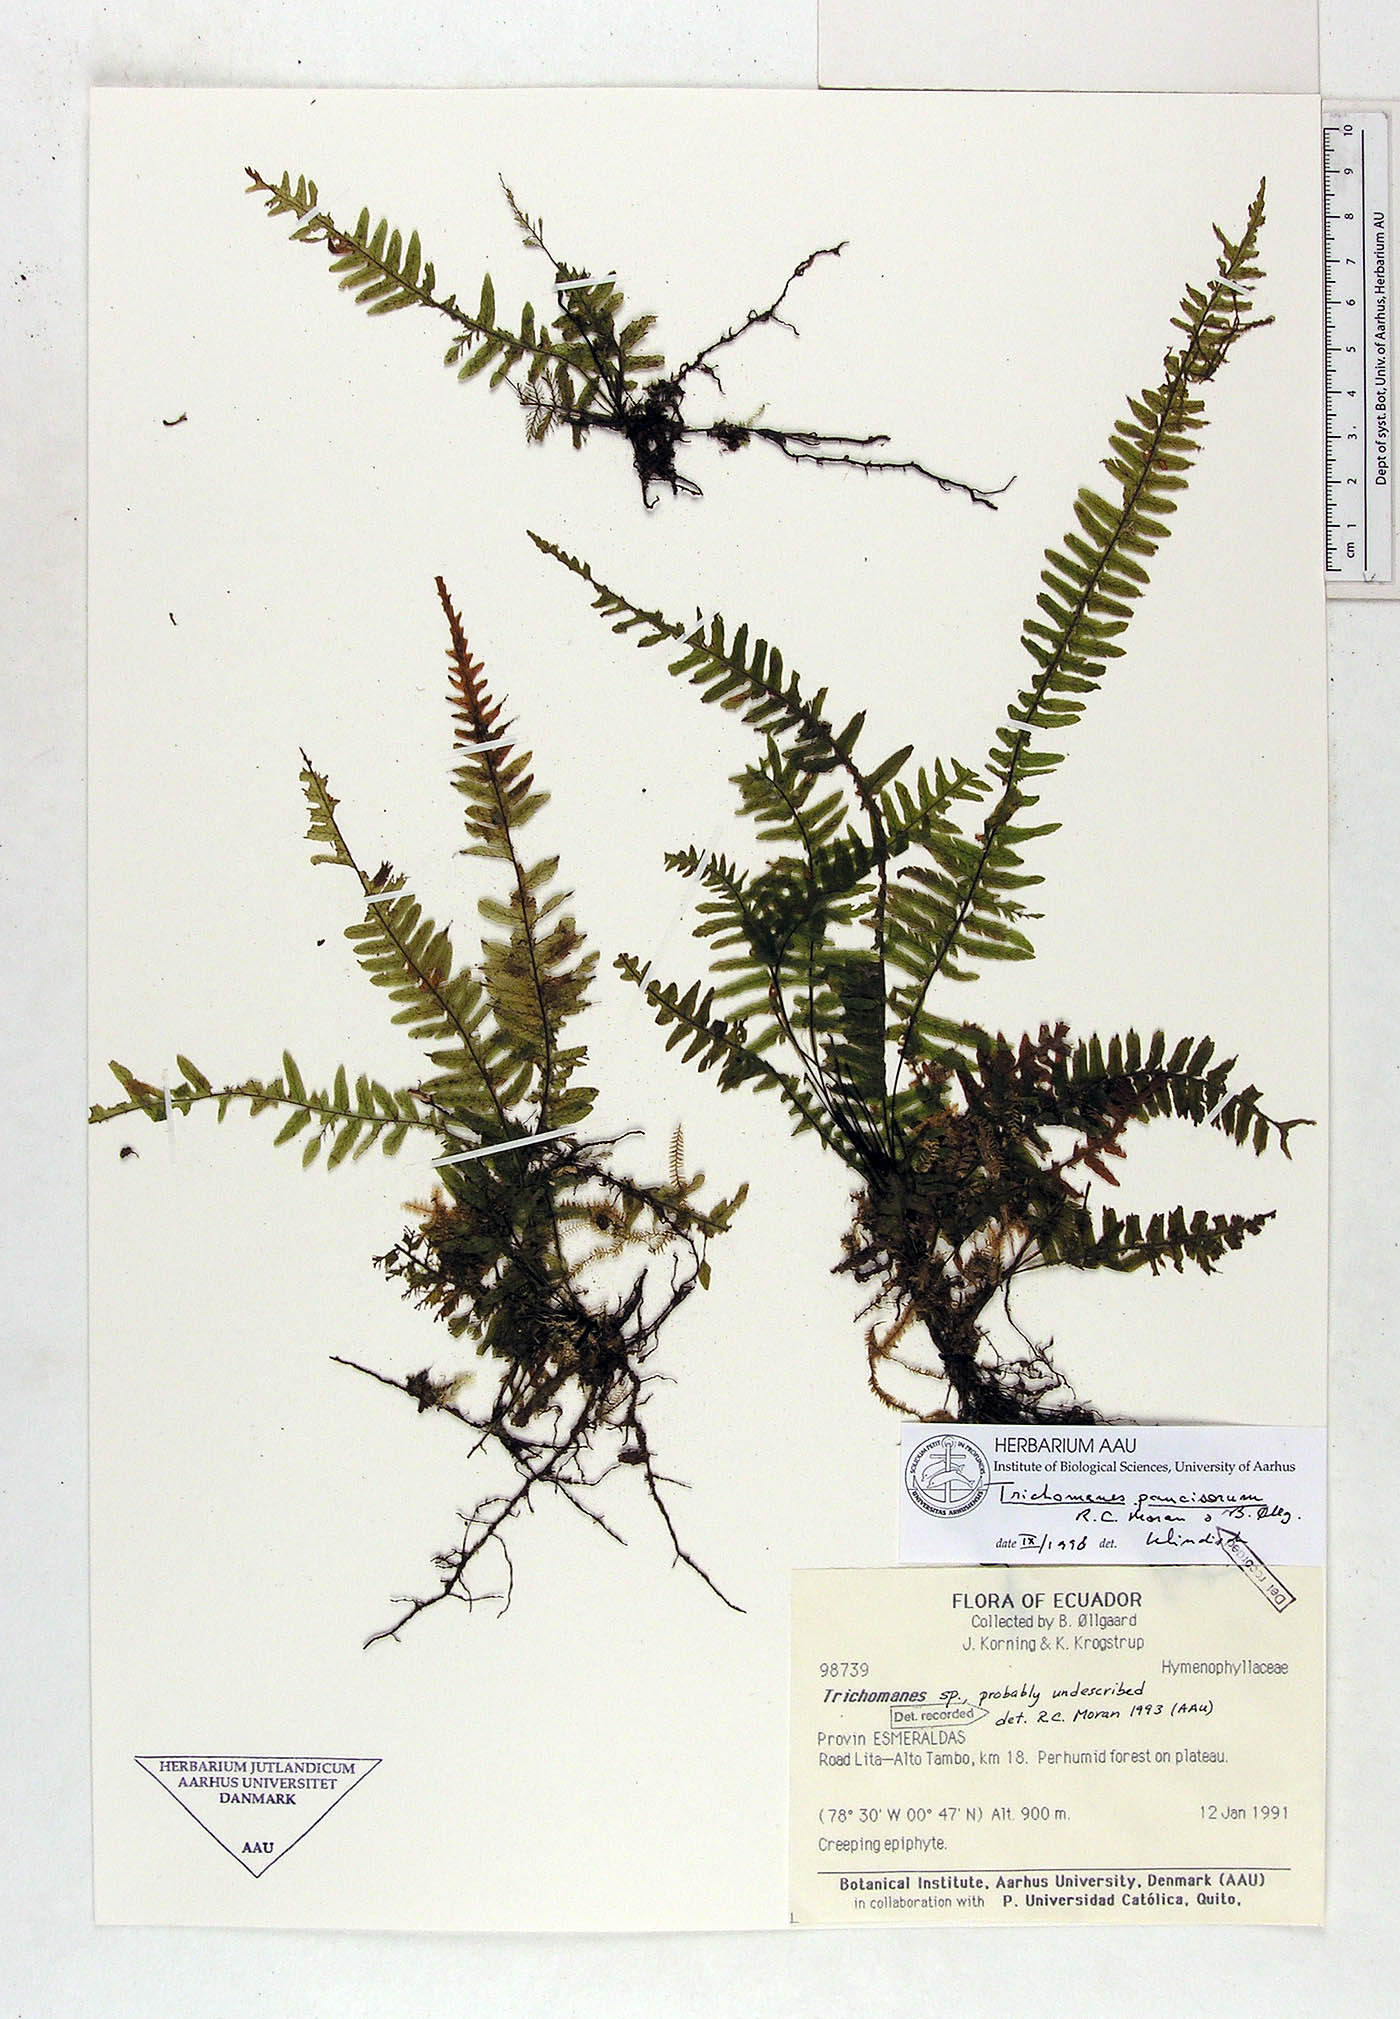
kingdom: Plantae
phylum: Tracheophyta
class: Polypodiopsida
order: Hymenophyllales
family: Hymenophyllaceae
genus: Trichomanes
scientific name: Trichomanes paucisorum
